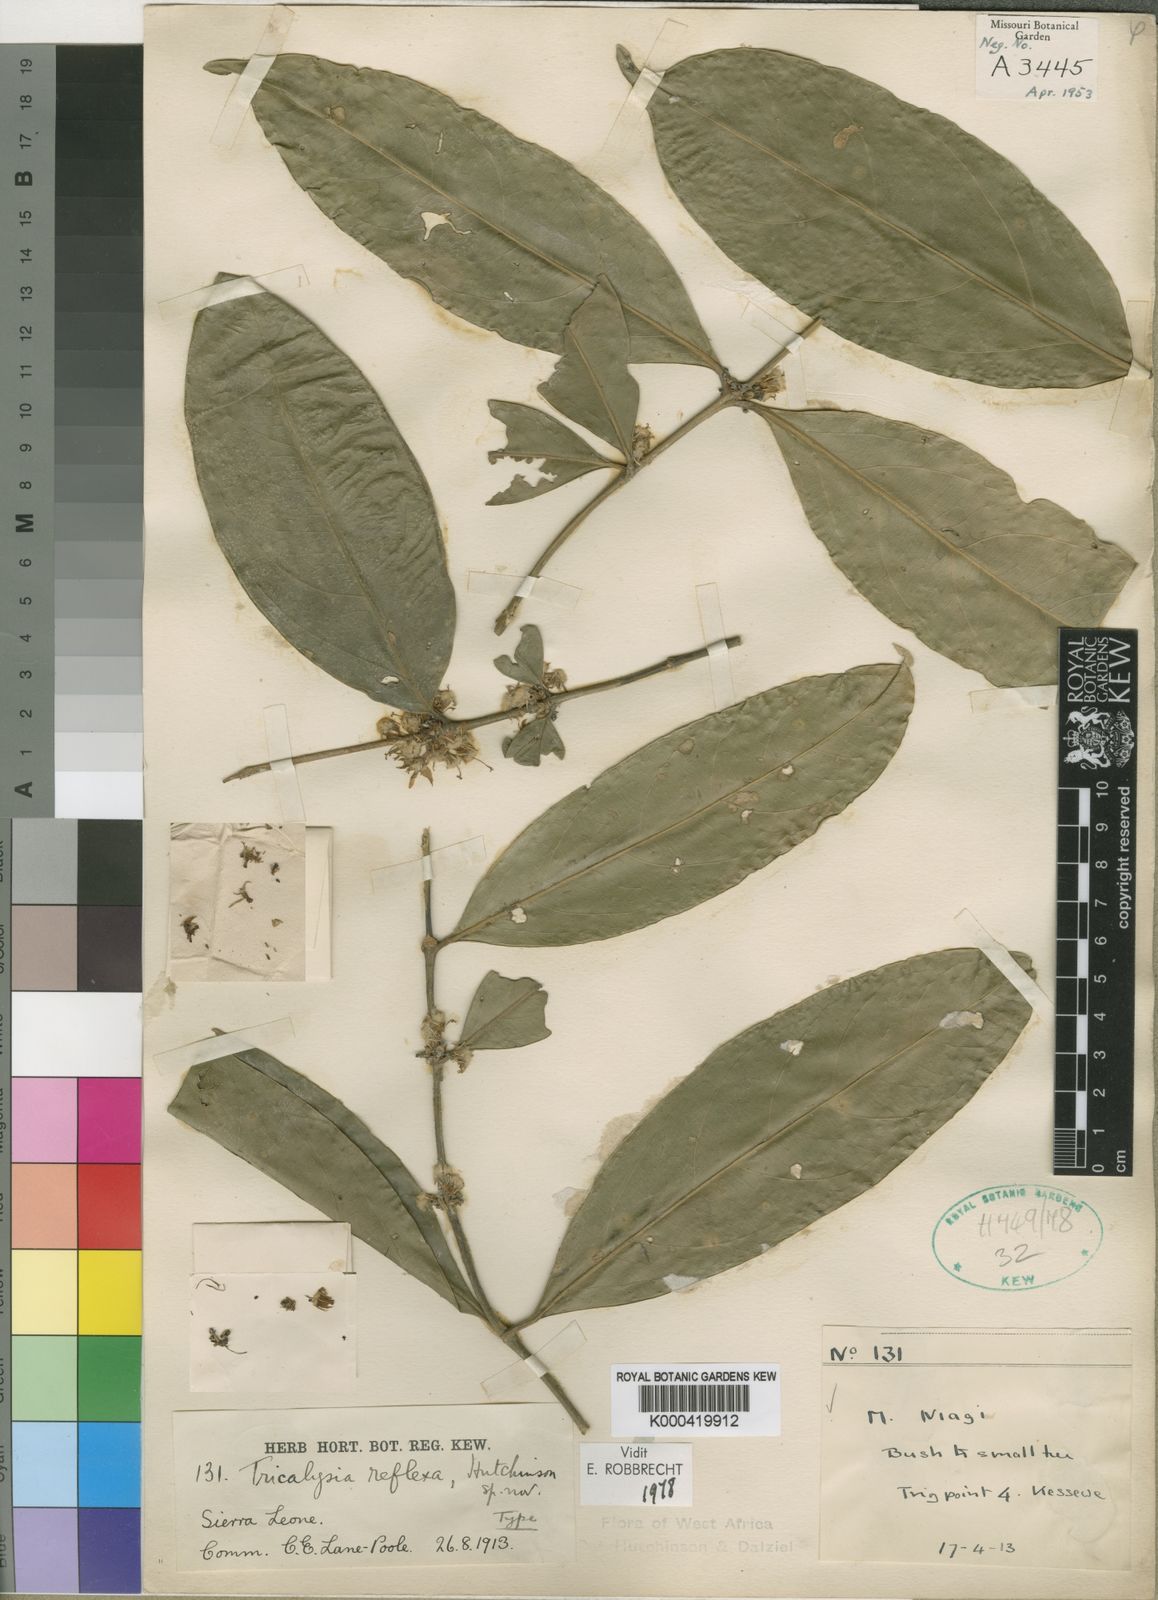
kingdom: Plantae
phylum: Tracheophyta
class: Magnoliopsida
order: Gentianales
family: Rubiaceae
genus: Empogona
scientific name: Empogona reflexa
